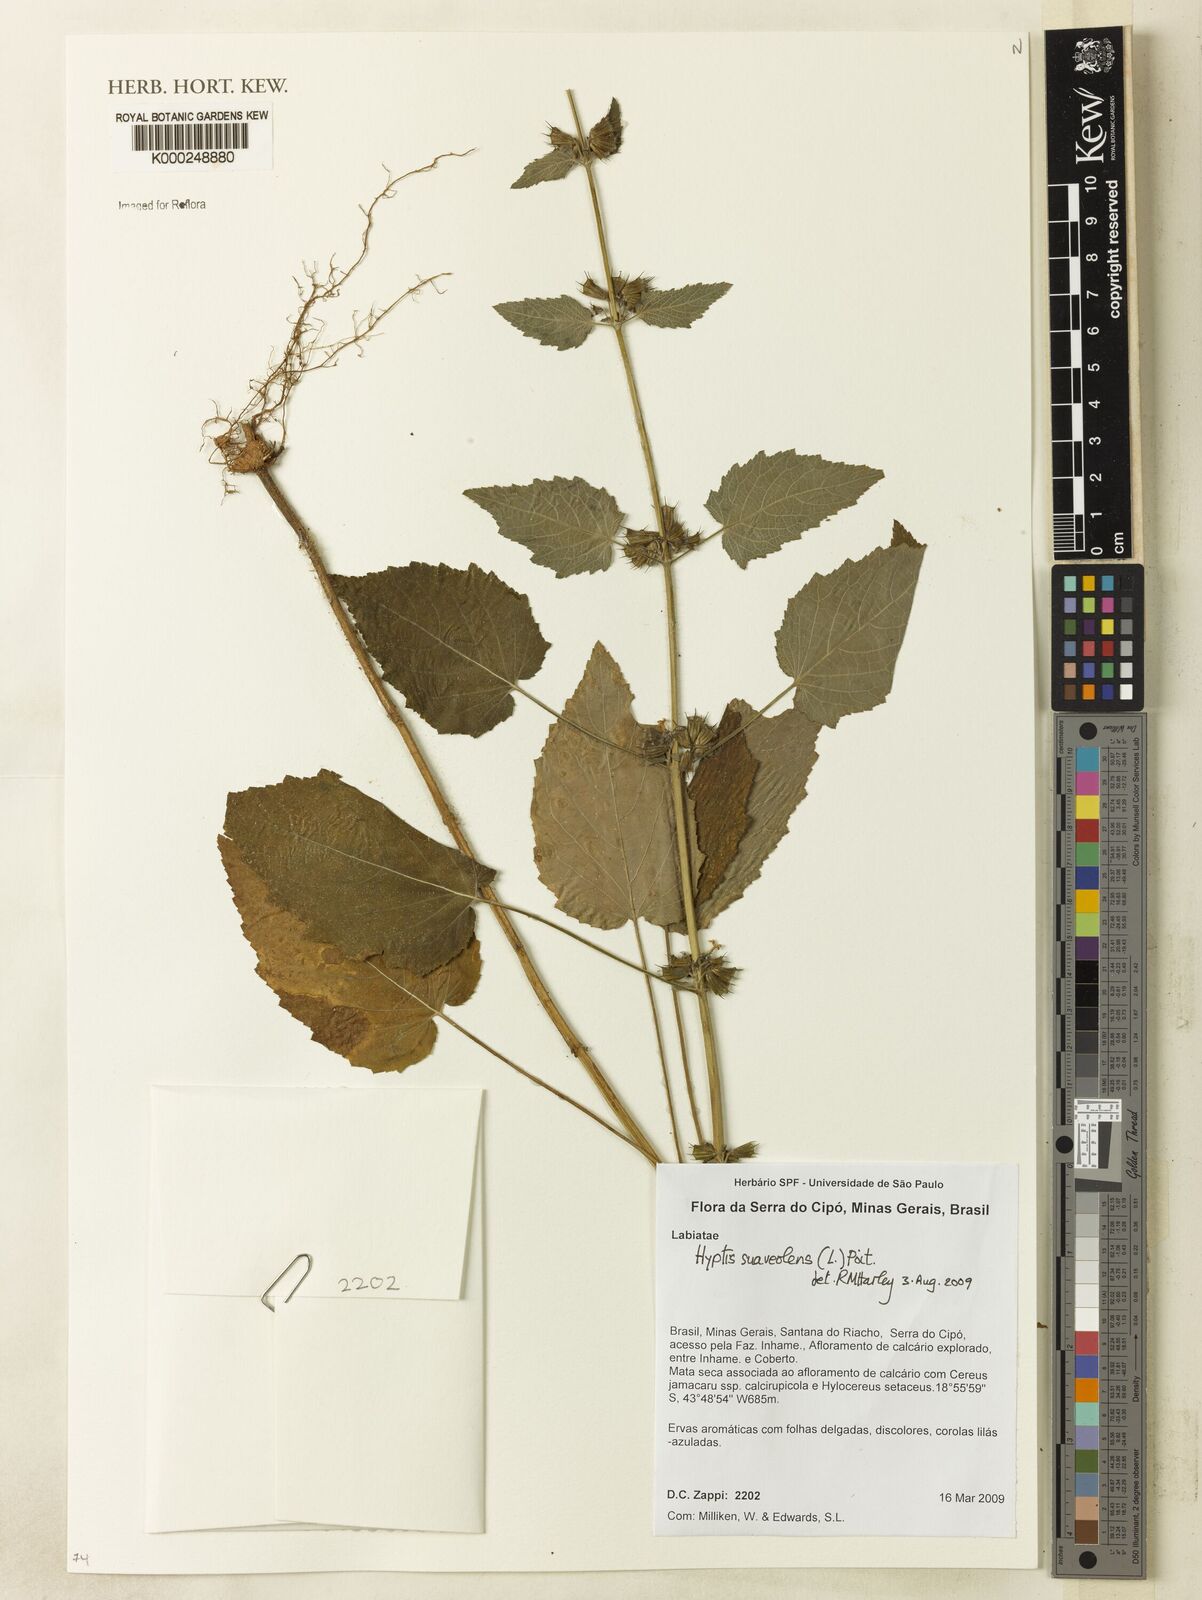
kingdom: Plantae
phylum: Tracheophyta
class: Magnoliopsida
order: Lamiales
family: Lamiaceae
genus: Mesosphaerum
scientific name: Mesosphaerum suaveolens
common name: Pignut
